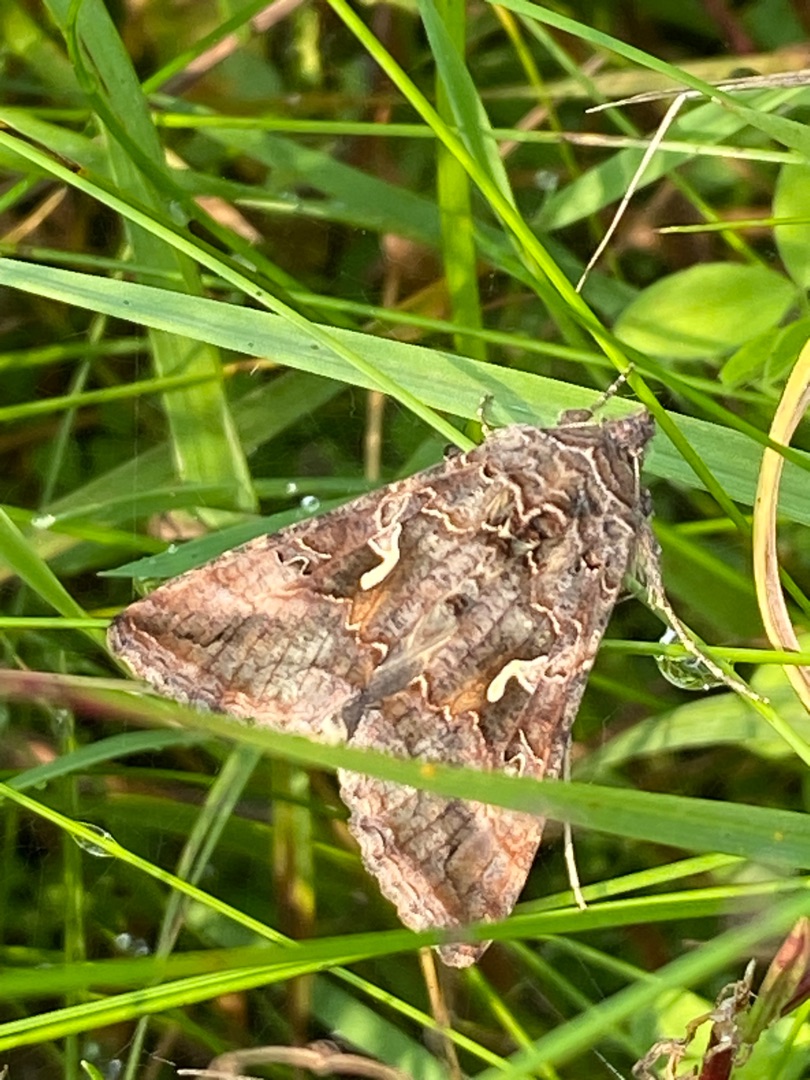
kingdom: Animalia
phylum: Arthropoda
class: Insecta
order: Lepidoptera
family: Noctuidae
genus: Autographa
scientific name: Autographa gamma
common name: Gammaugle
